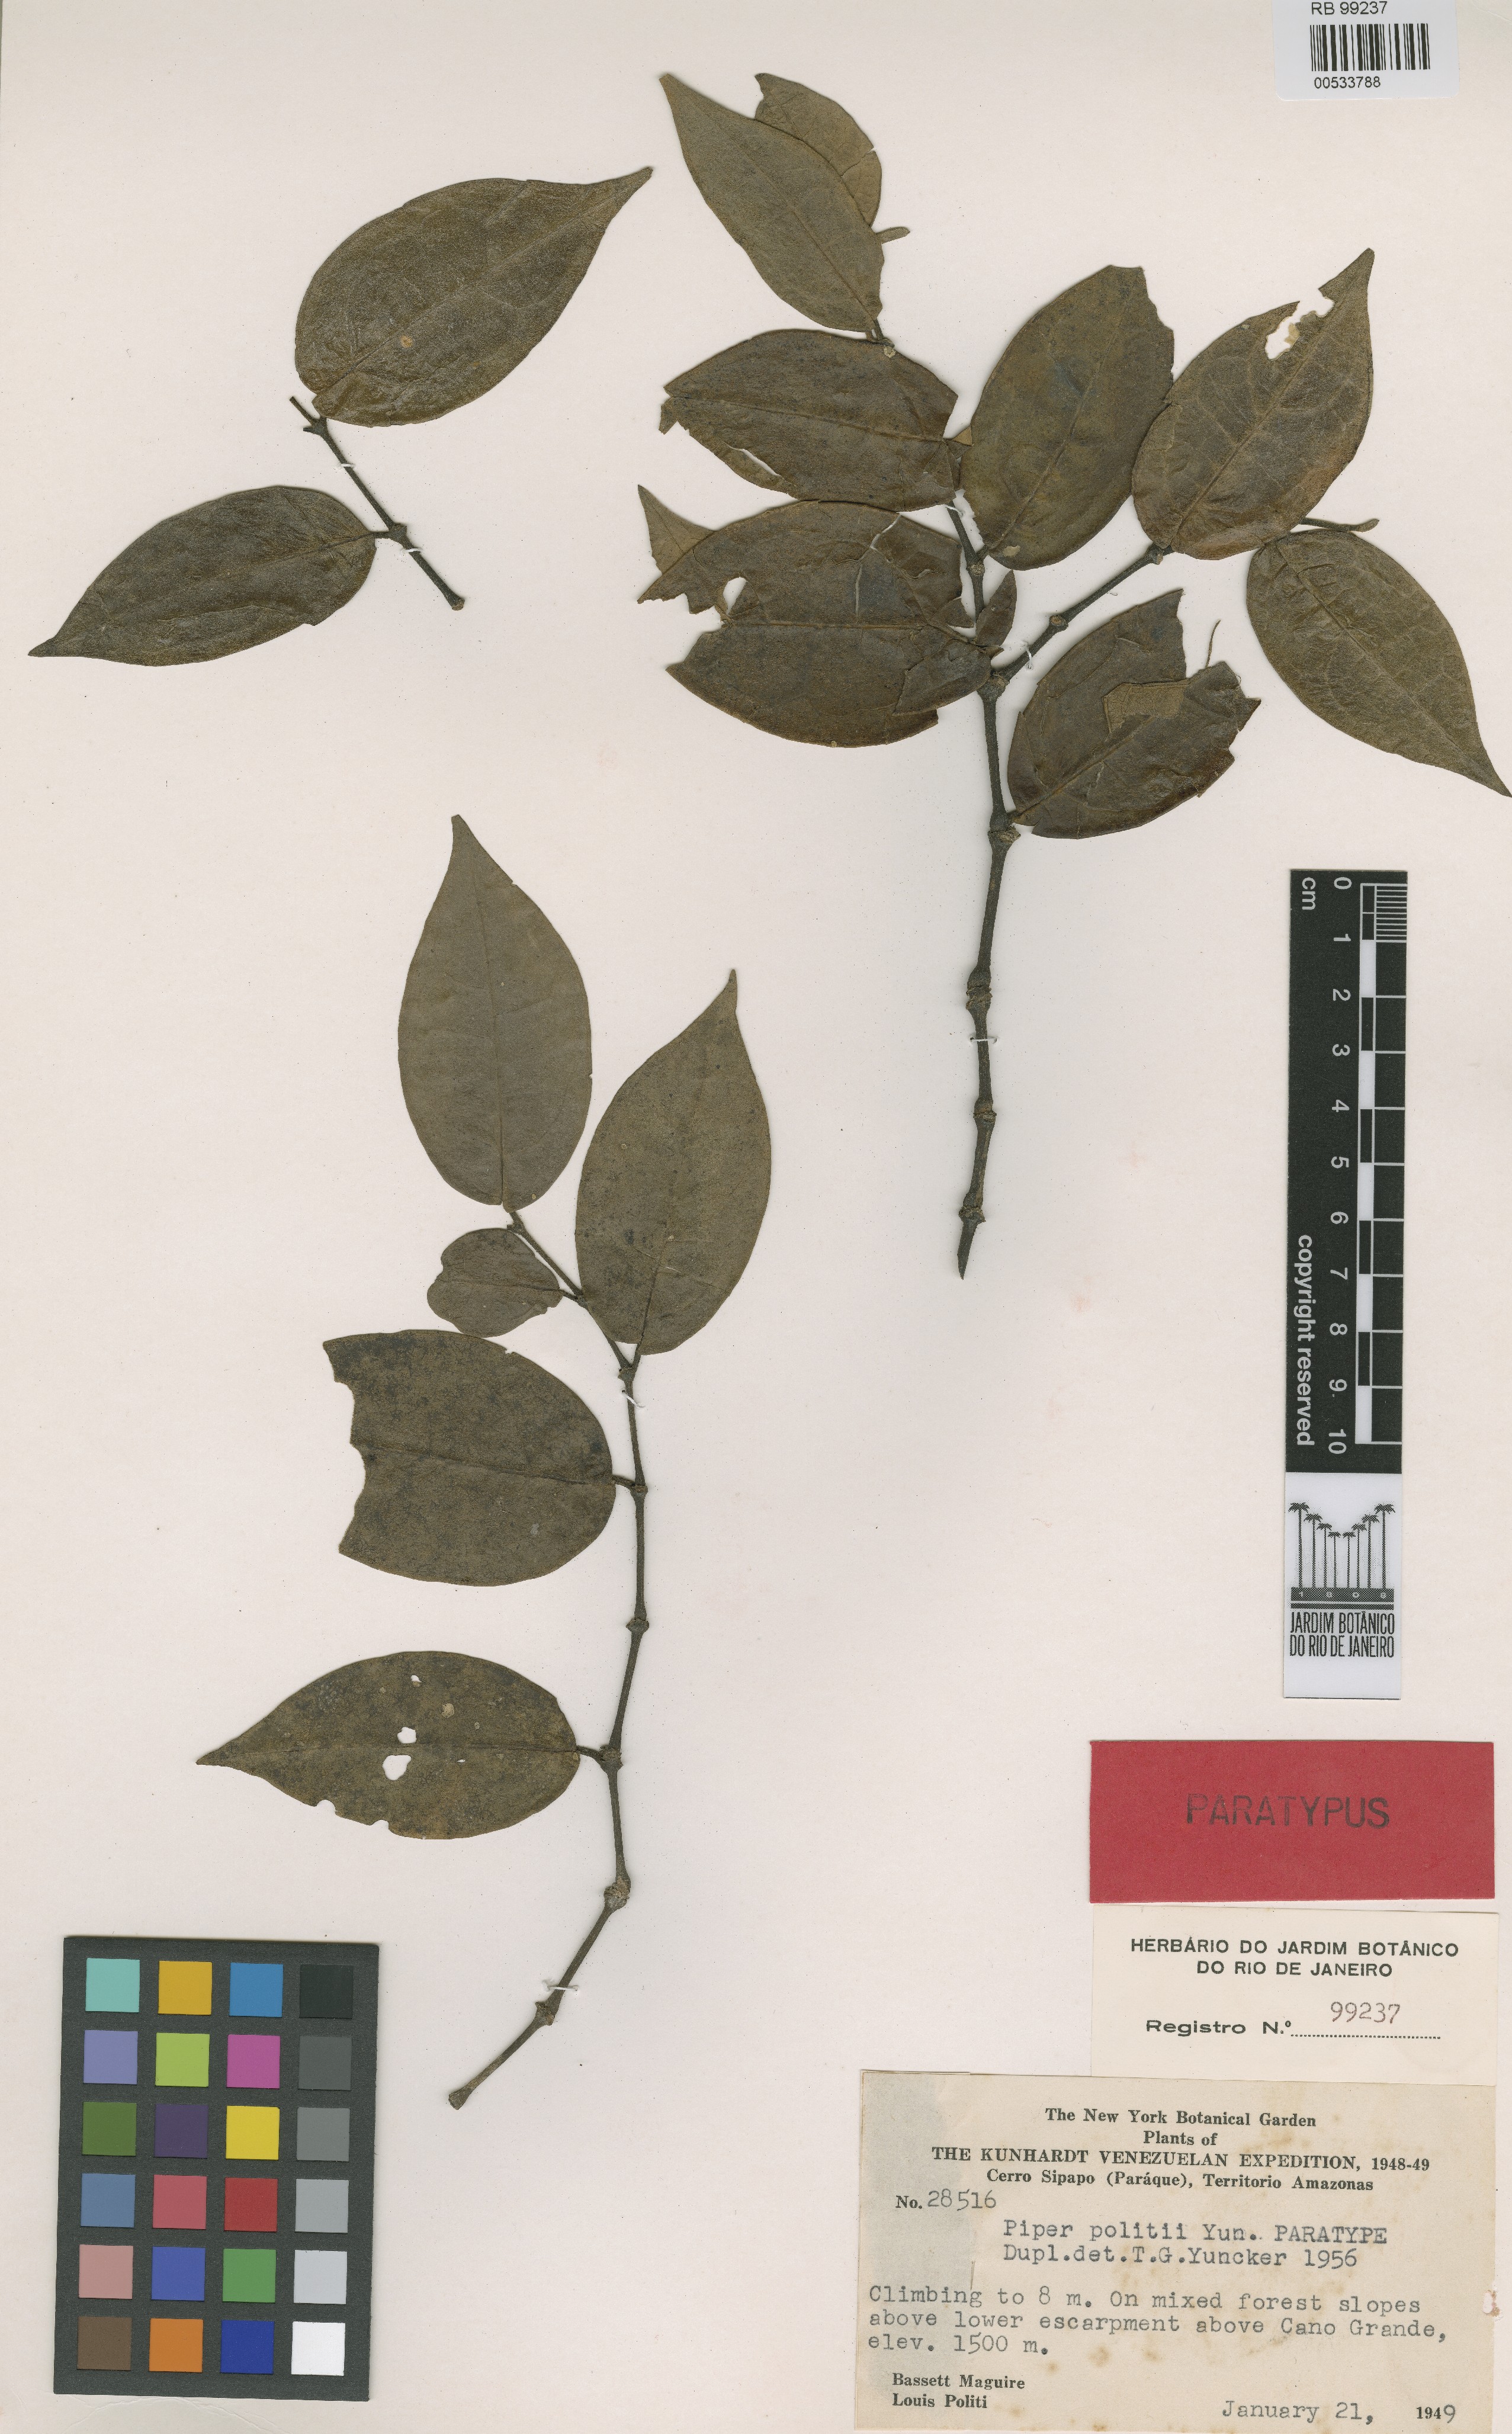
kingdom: Plantae
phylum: Tracheophyta
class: Magnoliopsida
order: Piperales
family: Piperaceae
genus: Piper
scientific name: Piper politii
